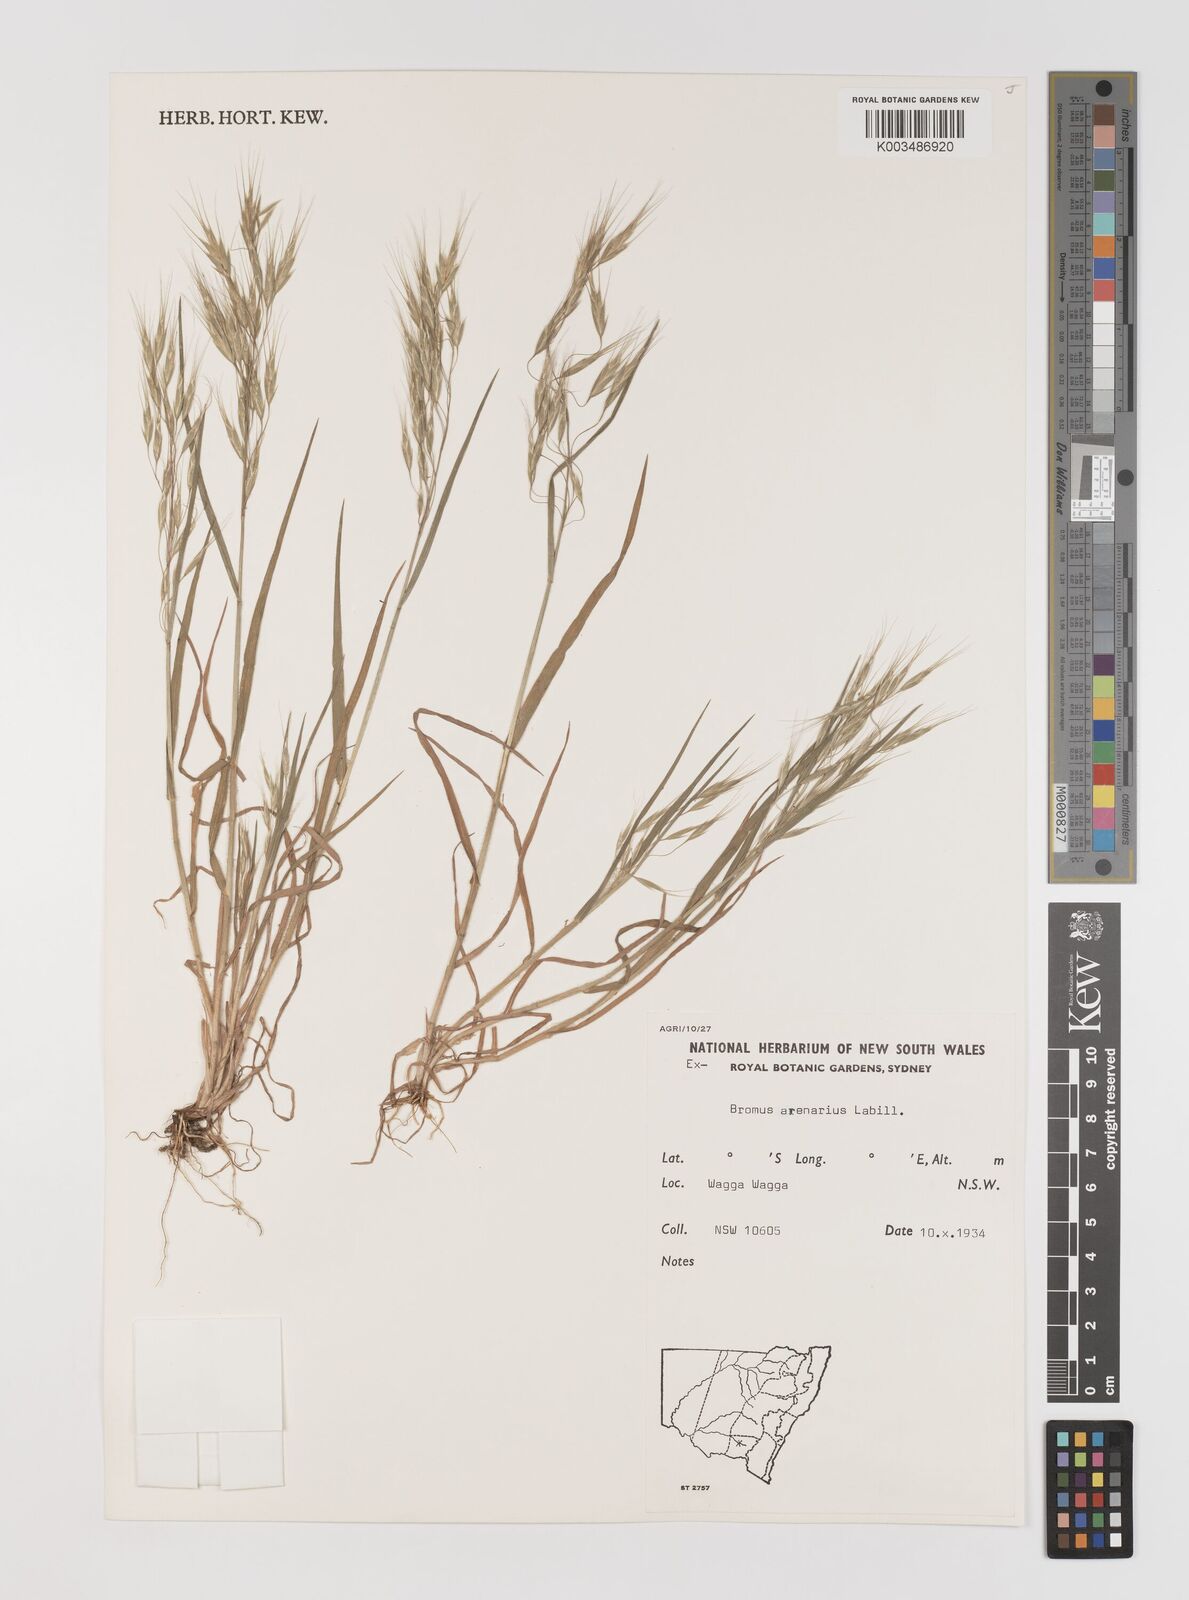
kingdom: Plantae
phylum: Tracheophyta
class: Liliopsida
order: Poales
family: Poaceae
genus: Bromus
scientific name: Bromus arenarius
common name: Australian brome
